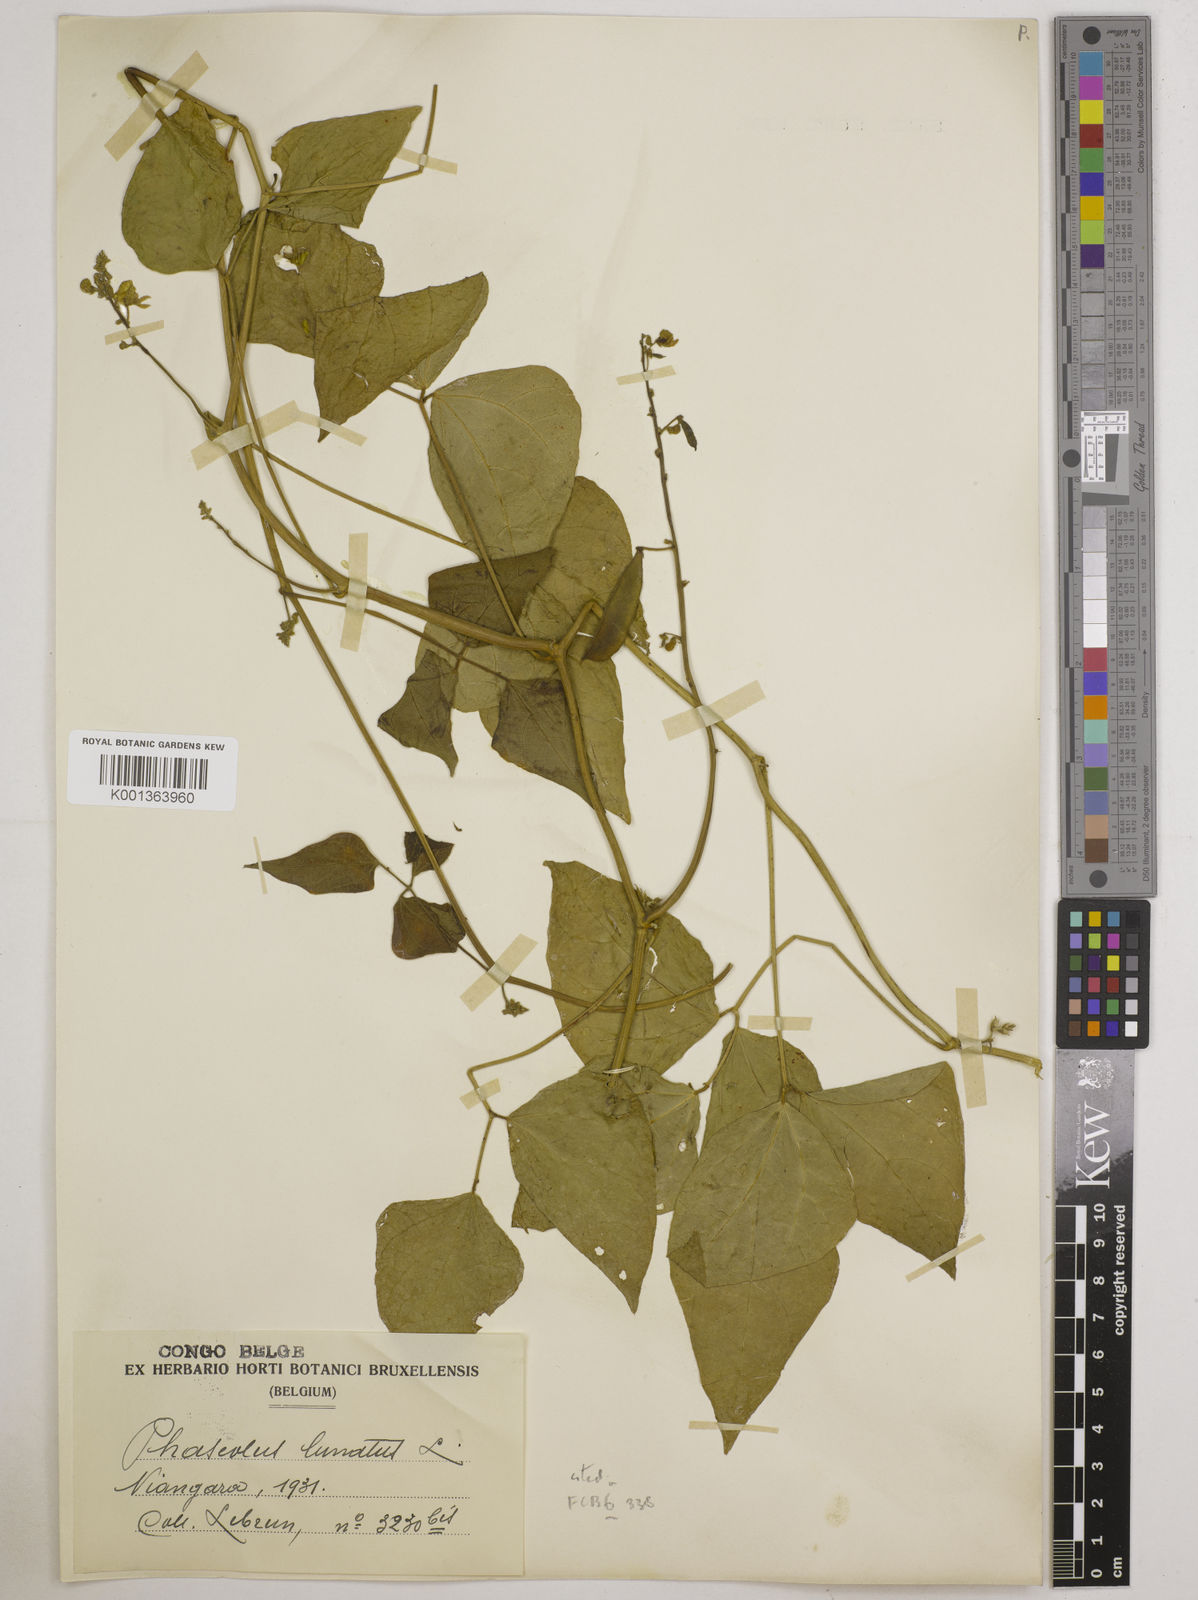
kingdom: Plantae
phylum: Tracheophyta
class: Magnoliopsida
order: Fabales
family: Fabaceae
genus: Phaseolus
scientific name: Phaseolus lunatus
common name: Sieva bean
